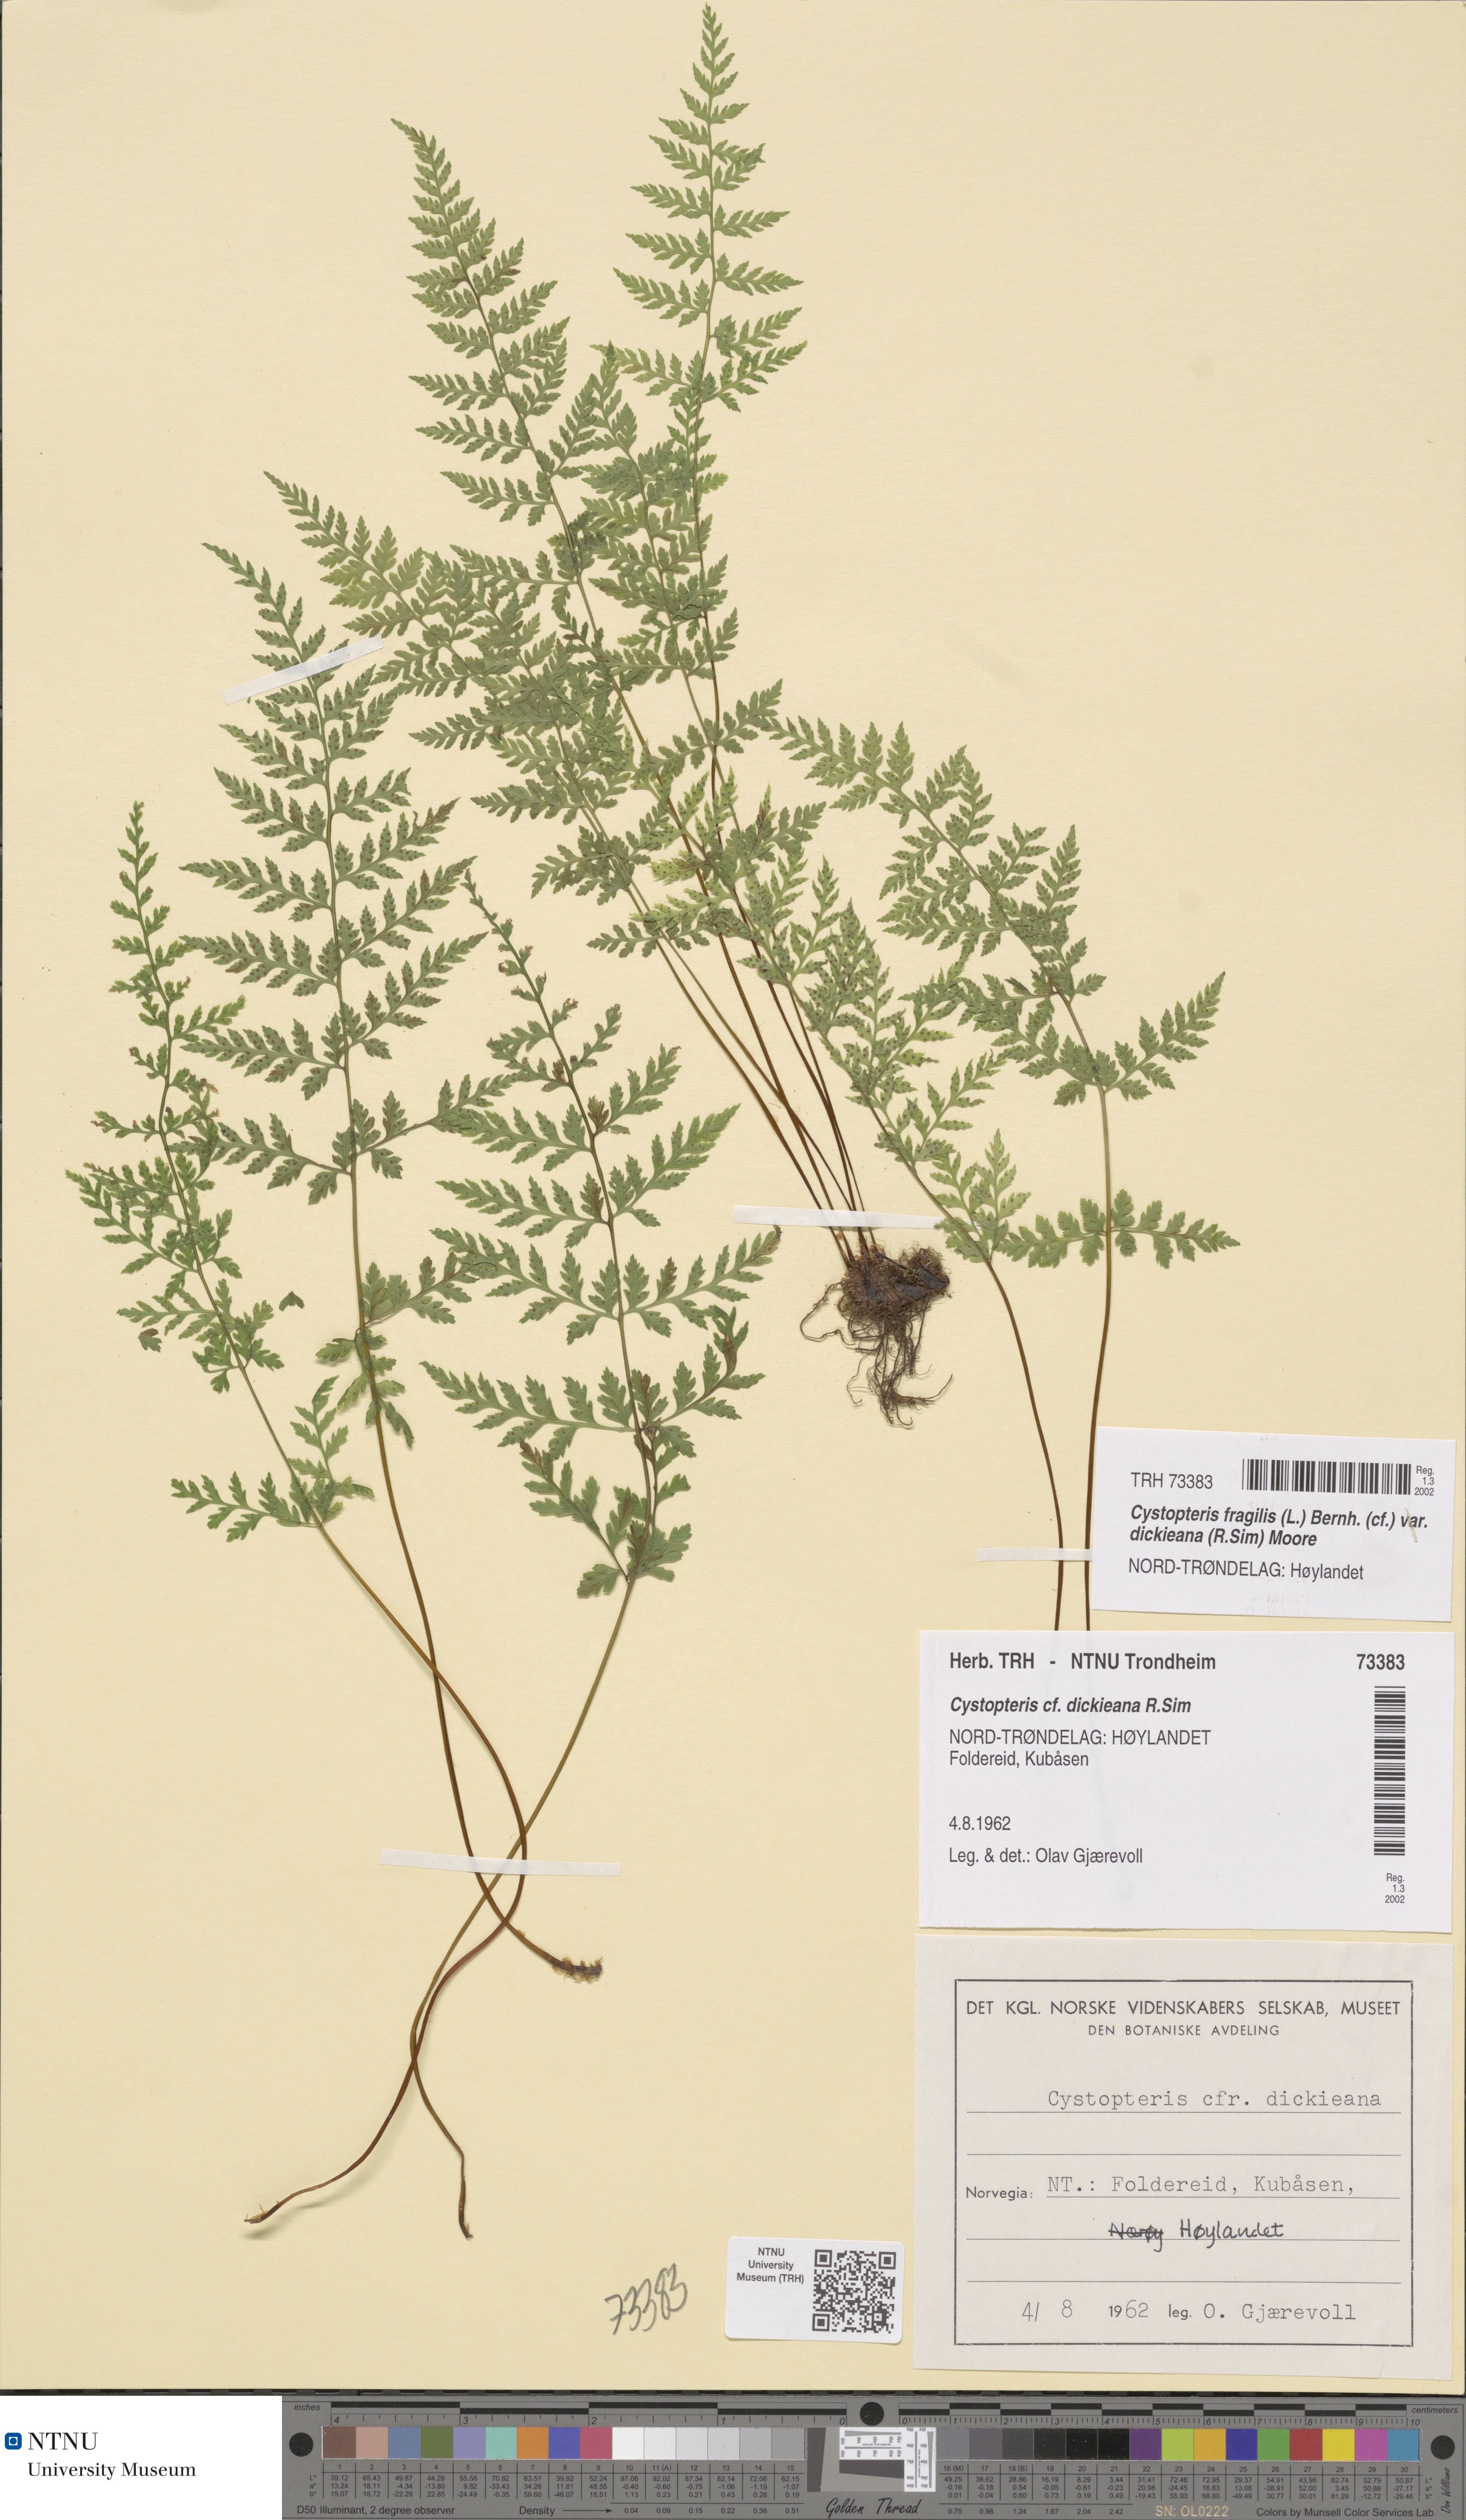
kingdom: Plantae
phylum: Tracheophyta
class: Polypodiopsida
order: Polypodiales
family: Cystopteridaceae
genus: Cystopteris
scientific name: Cystopteris dickieana
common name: Dickie's bladder-fern
